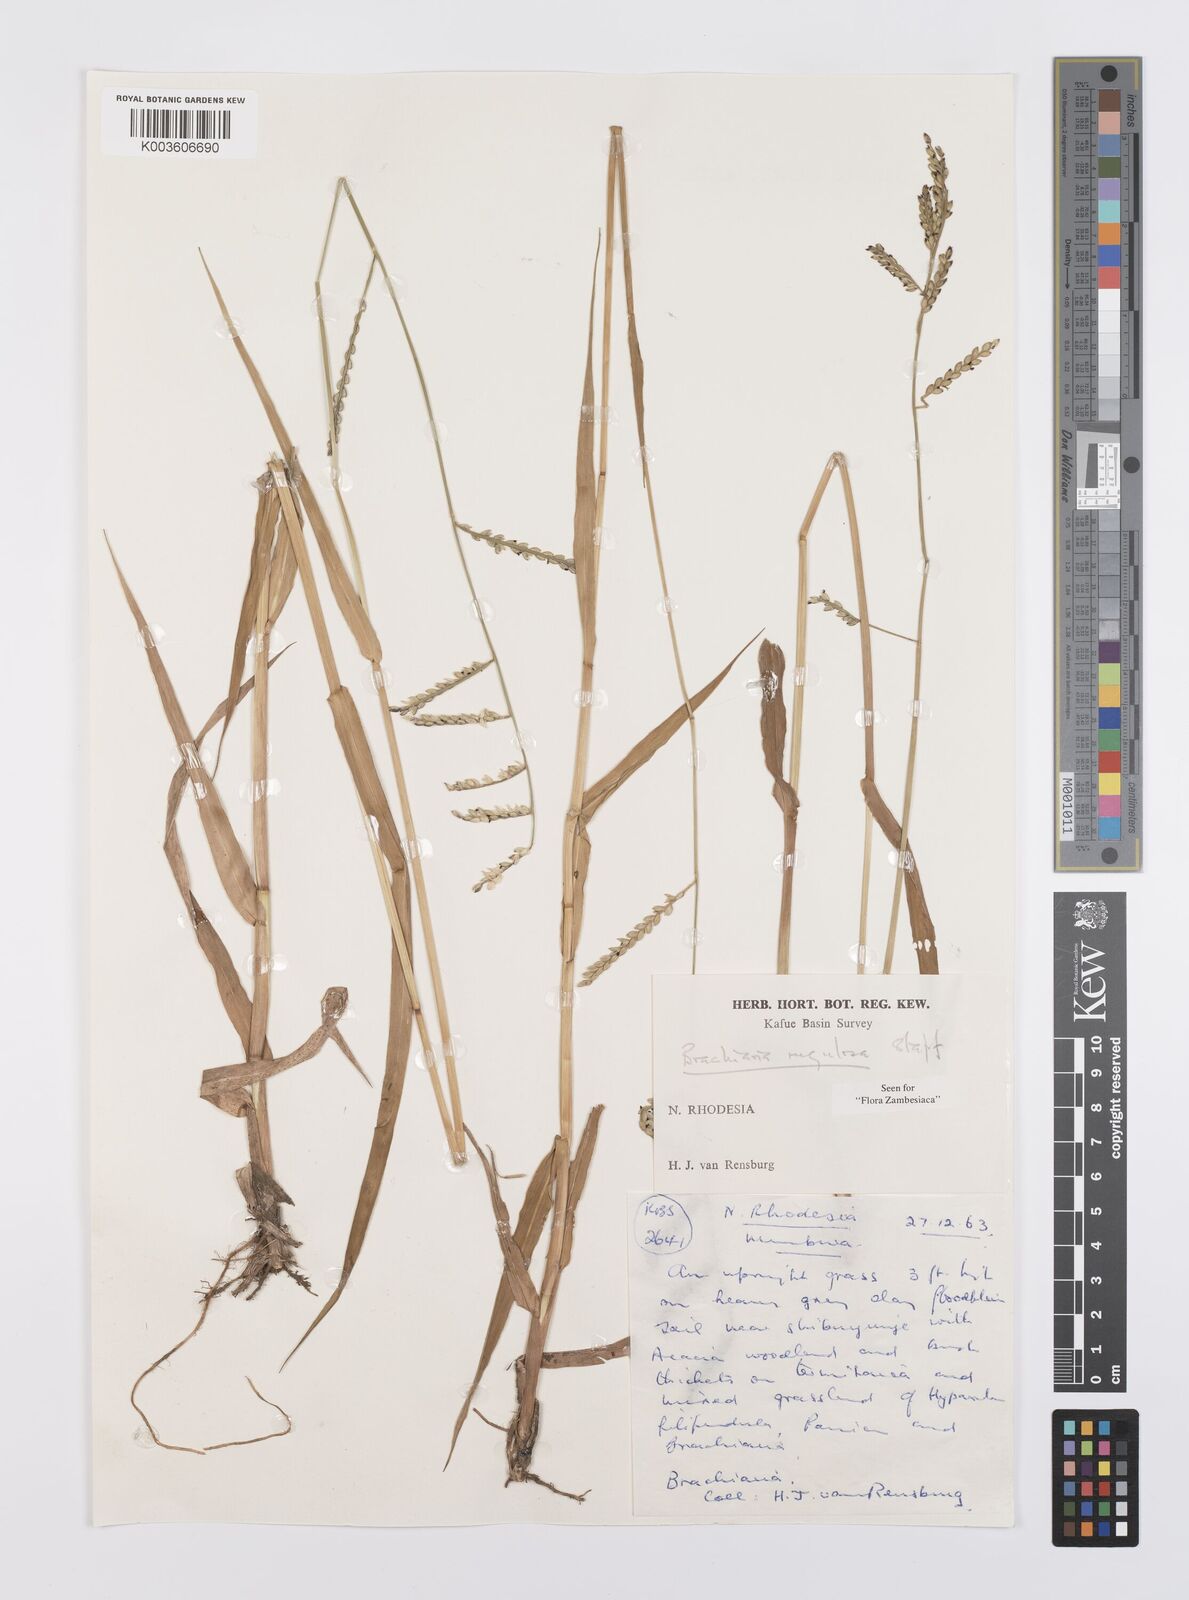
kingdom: Plantae
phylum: Tracheophyta
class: Liliopsida
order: Poales
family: Poaceae
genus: Urochloa
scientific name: Urochloa rugulosa
